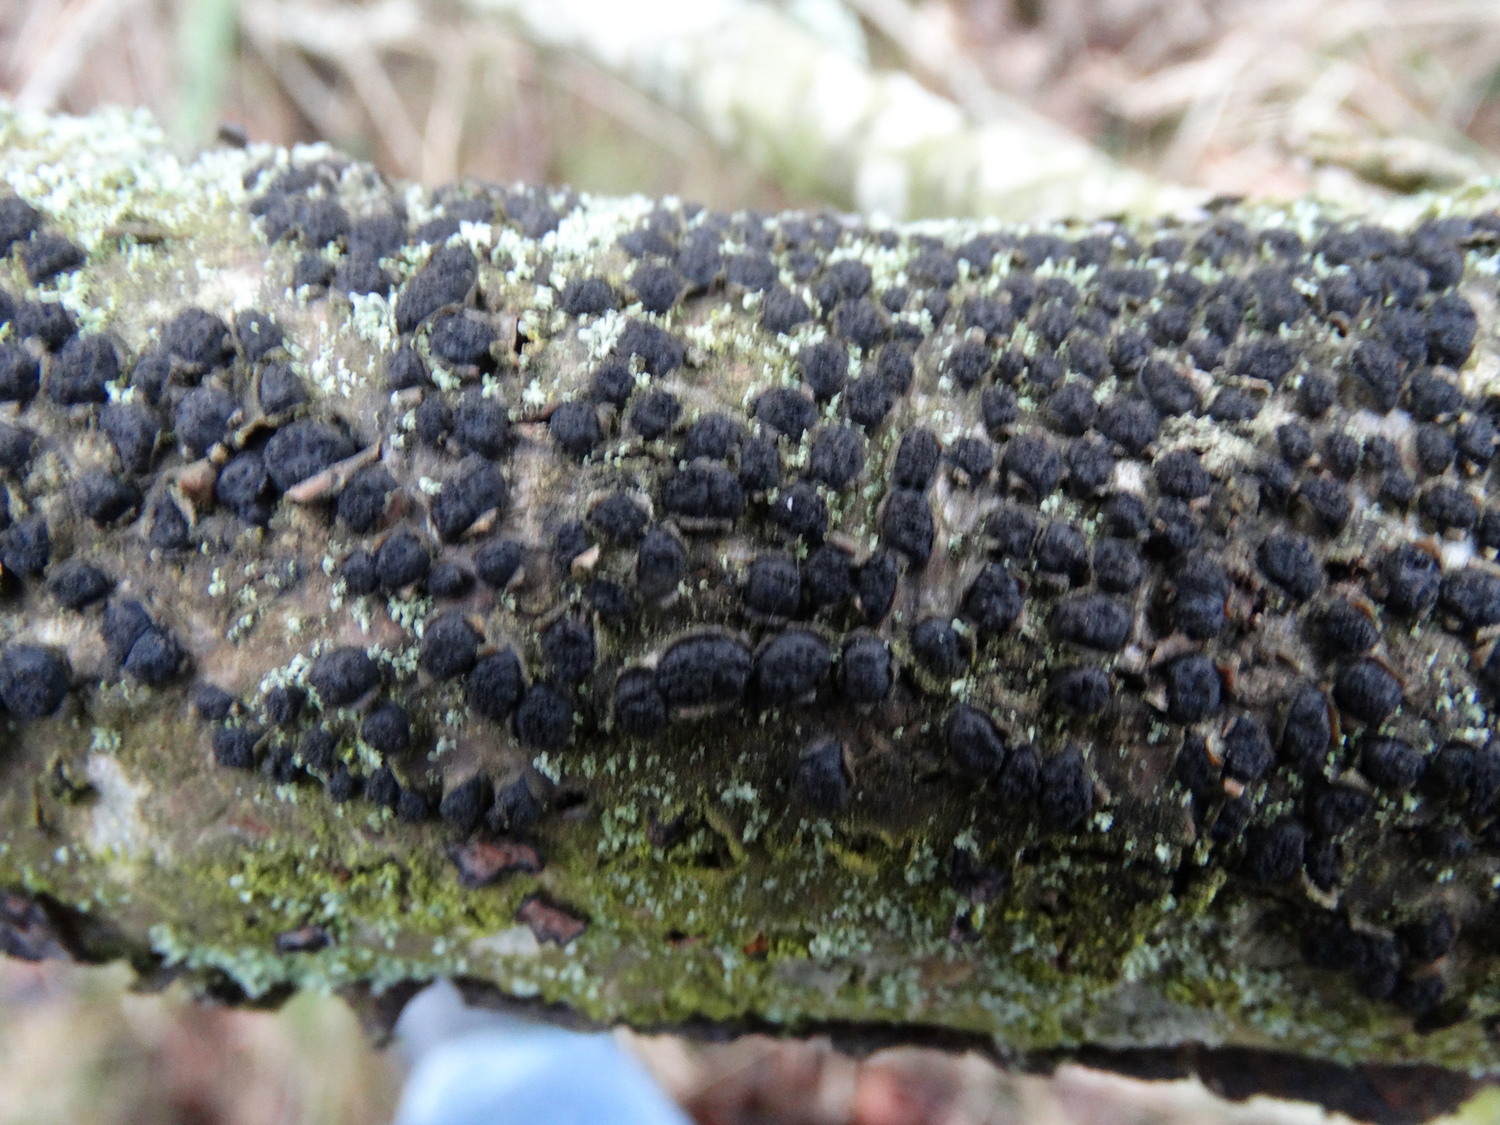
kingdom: Fungi
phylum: Ascomycota
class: Sordariomycetes
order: Xylariales
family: Diatrypaceae
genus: Diatrypella
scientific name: Diatrypella quercina
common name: ege-kulskorpe
